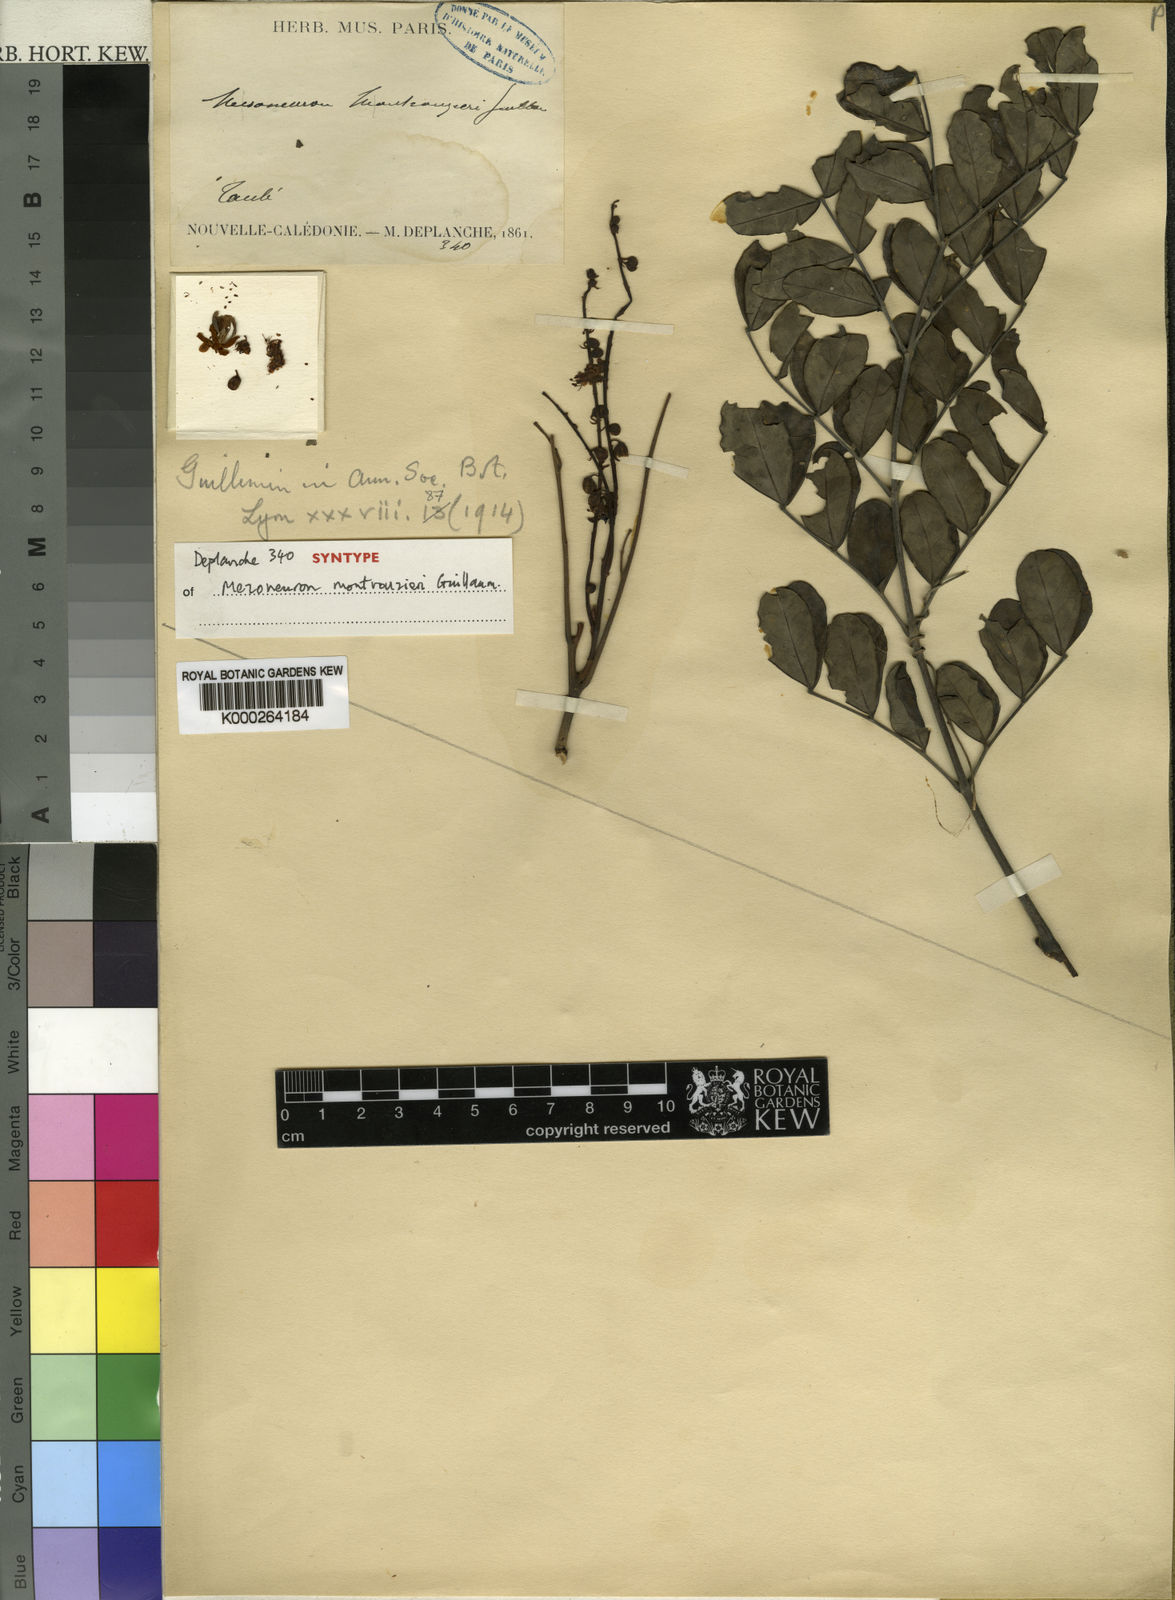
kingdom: Plantae
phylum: Tracheophyta
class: Magnoliopsida
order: Fabales
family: Fabaceae
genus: Caesalpinia
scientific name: Caesalpinia
